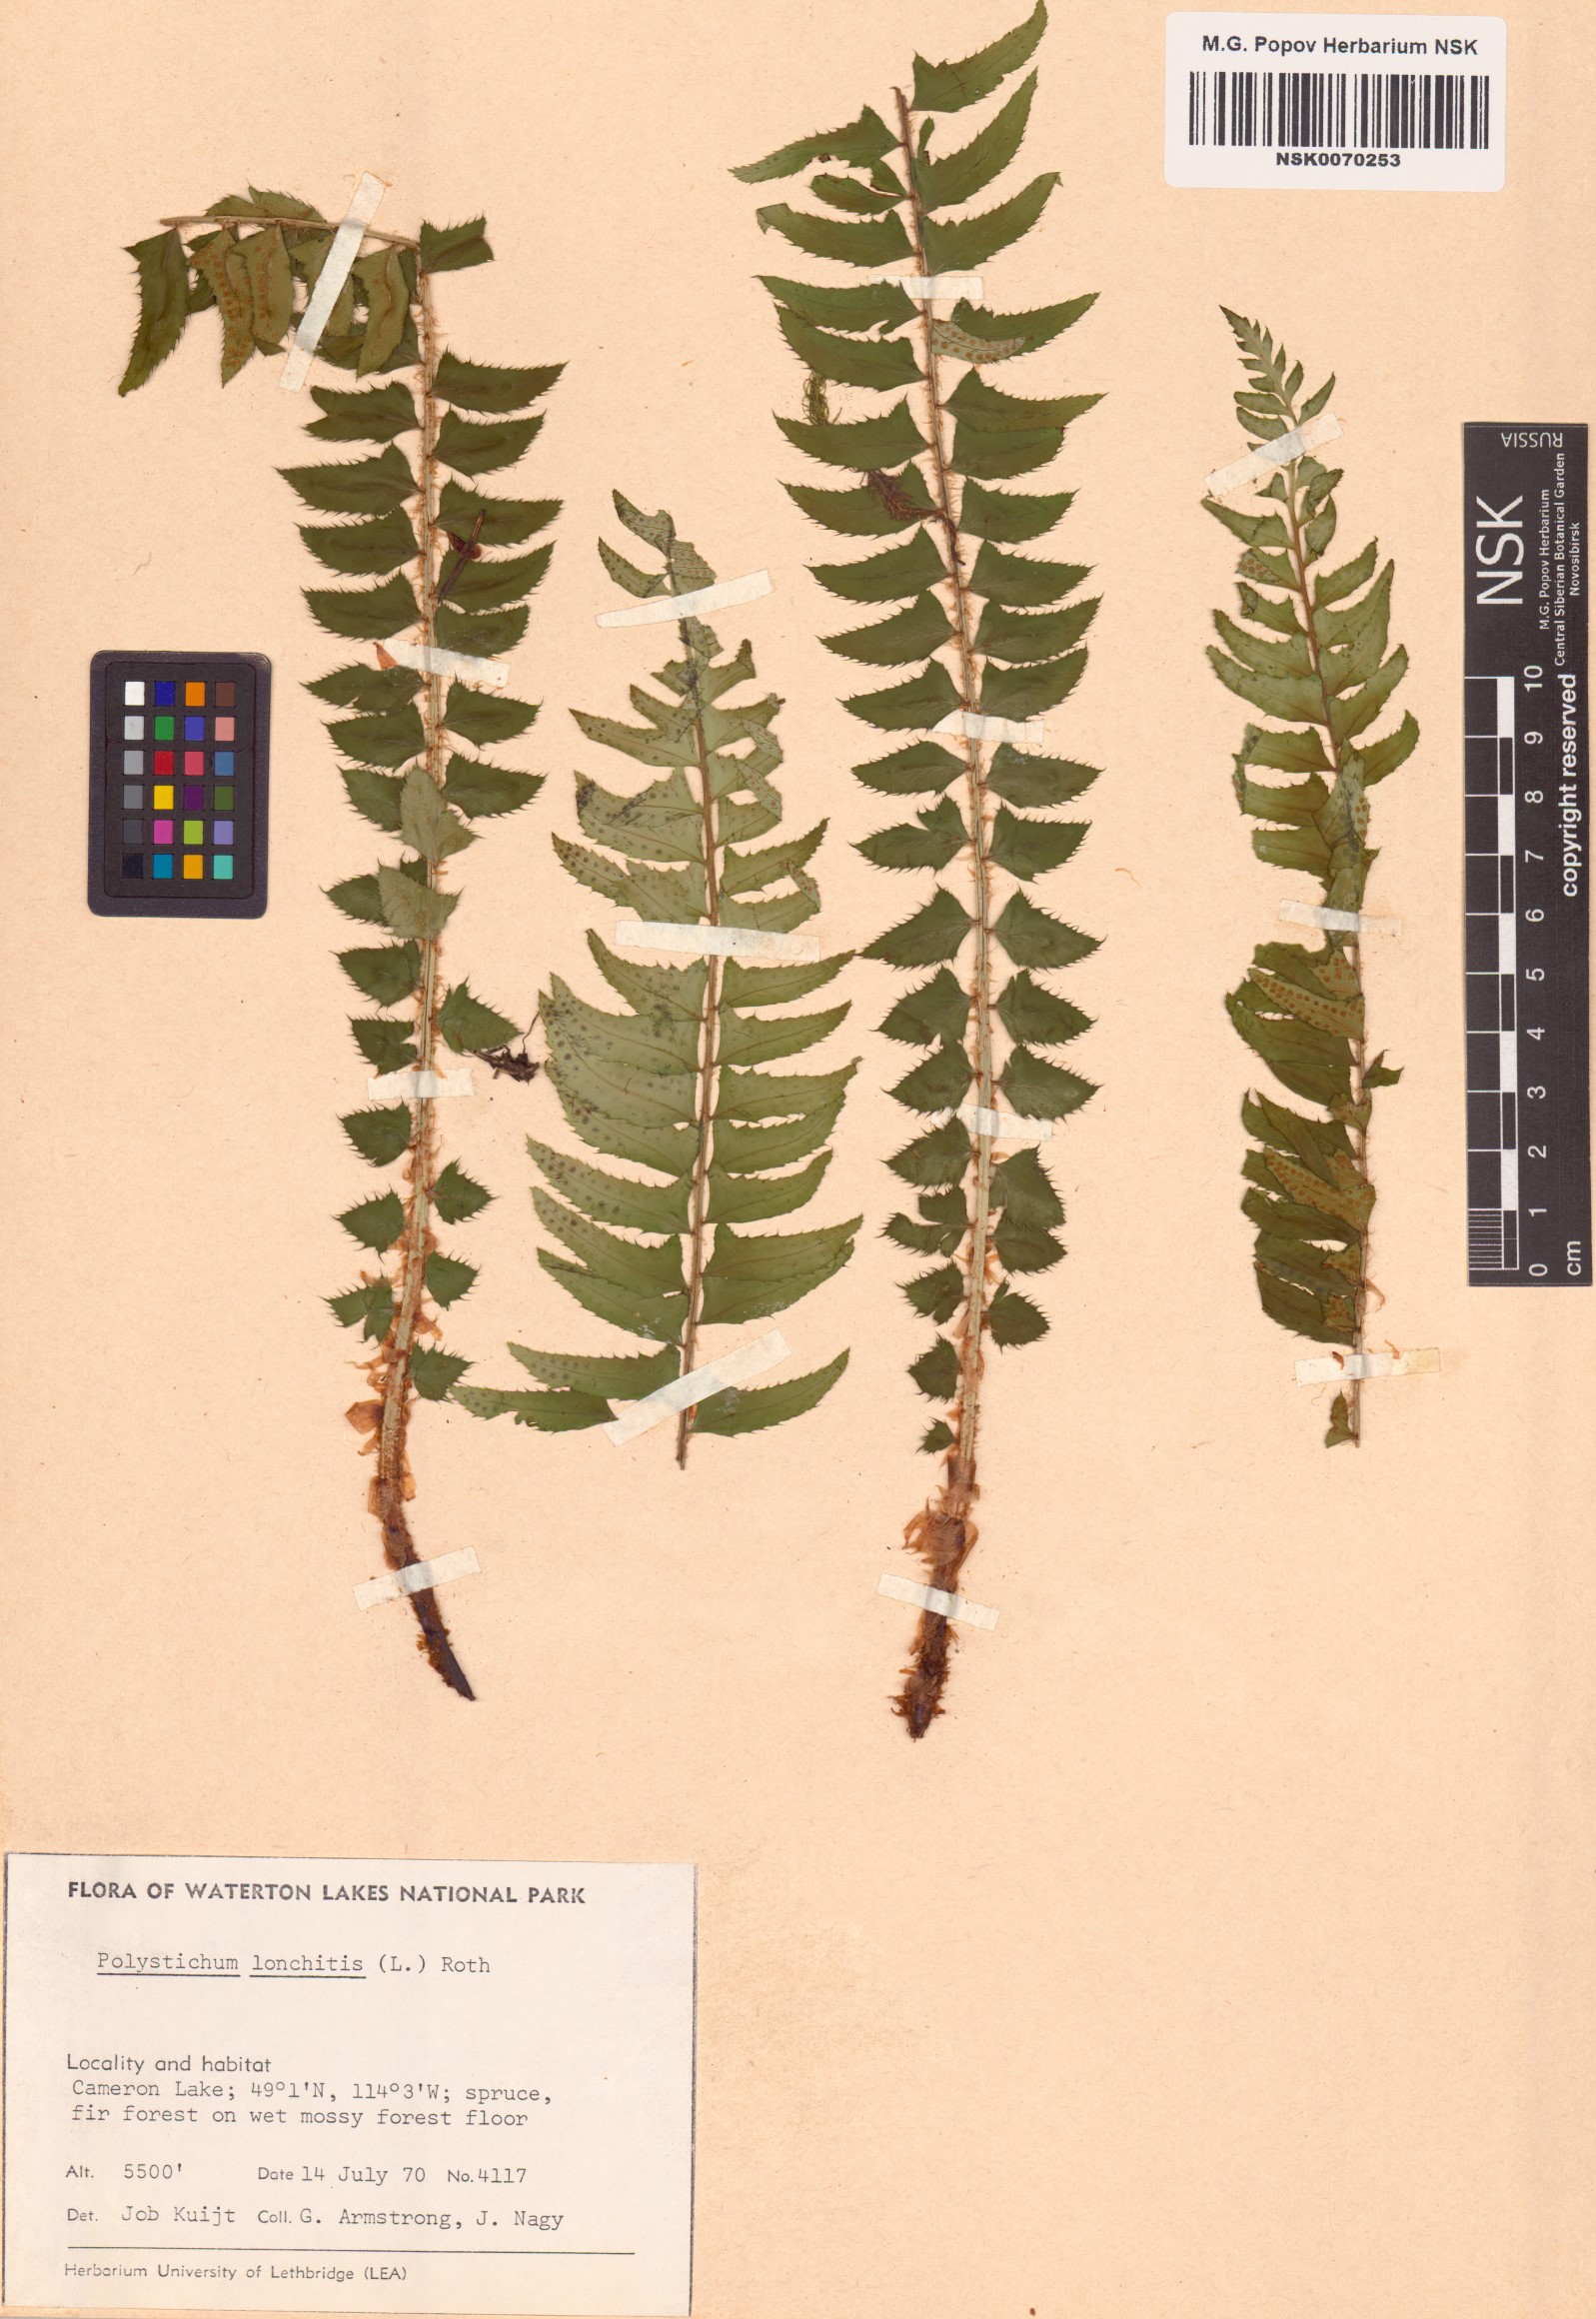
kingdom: Plantae
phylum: Tracheophyta
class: Polypodiopsida
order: Polypodiales
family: Dryopteridaceae
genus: Polystichum
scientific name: Polystichum lonchitis
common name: Holly fern
